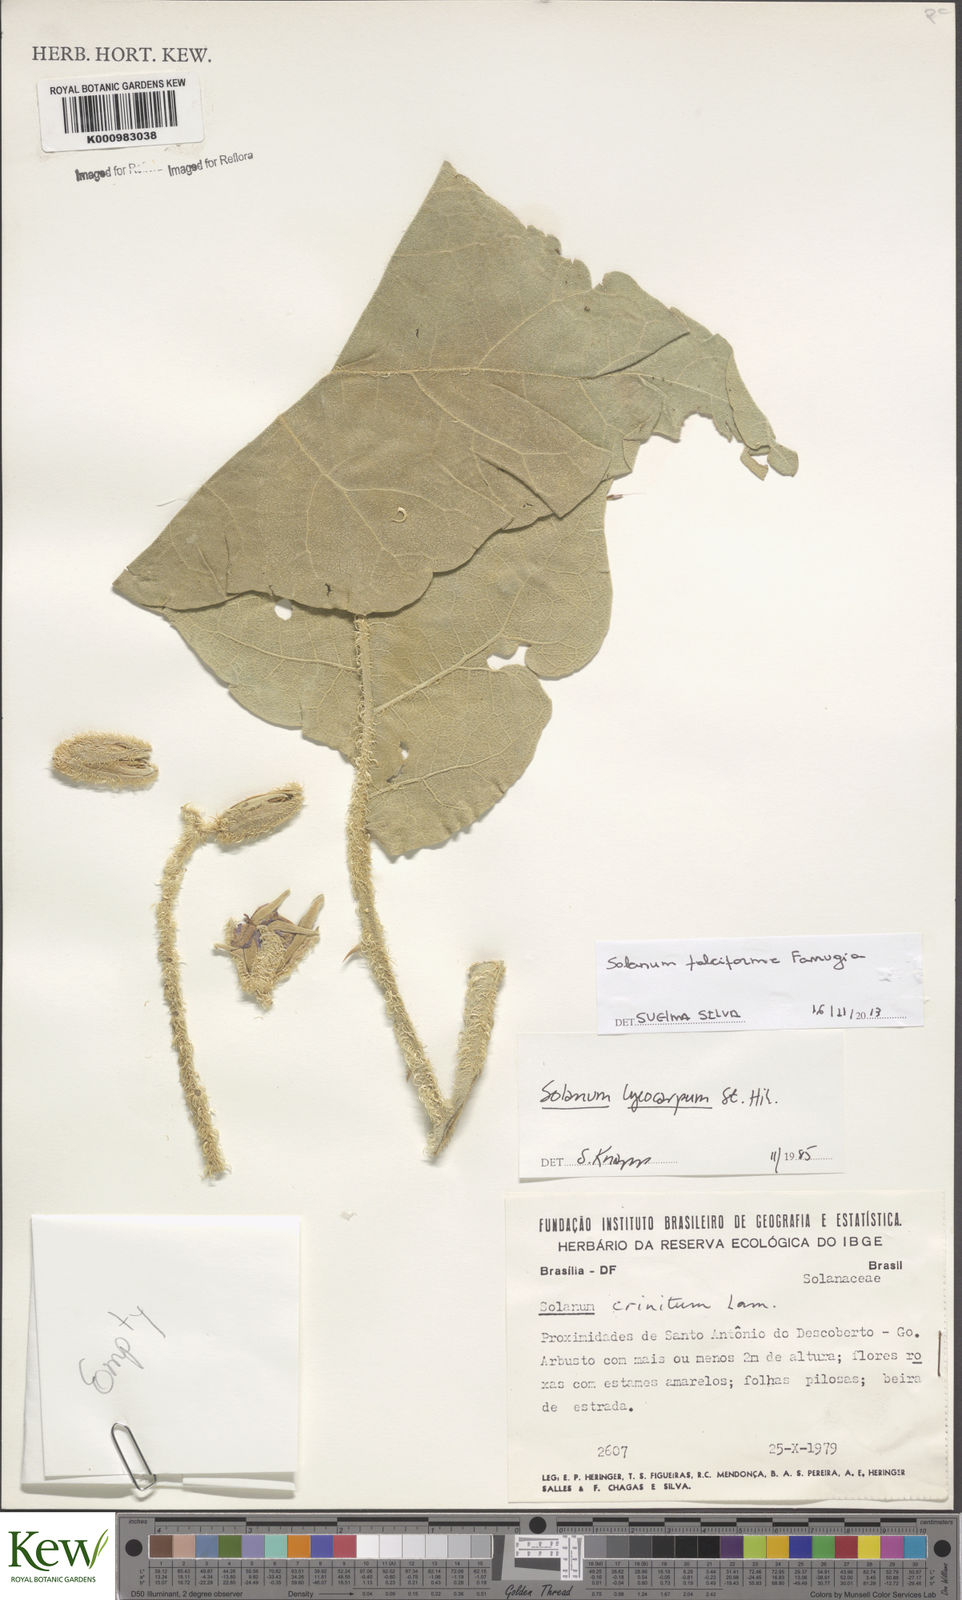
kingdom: Plantae
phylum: Tracheophyta
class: Magnoliopsida
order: Solanales
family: Solanaceae
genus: Solanum
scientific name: Solanum
